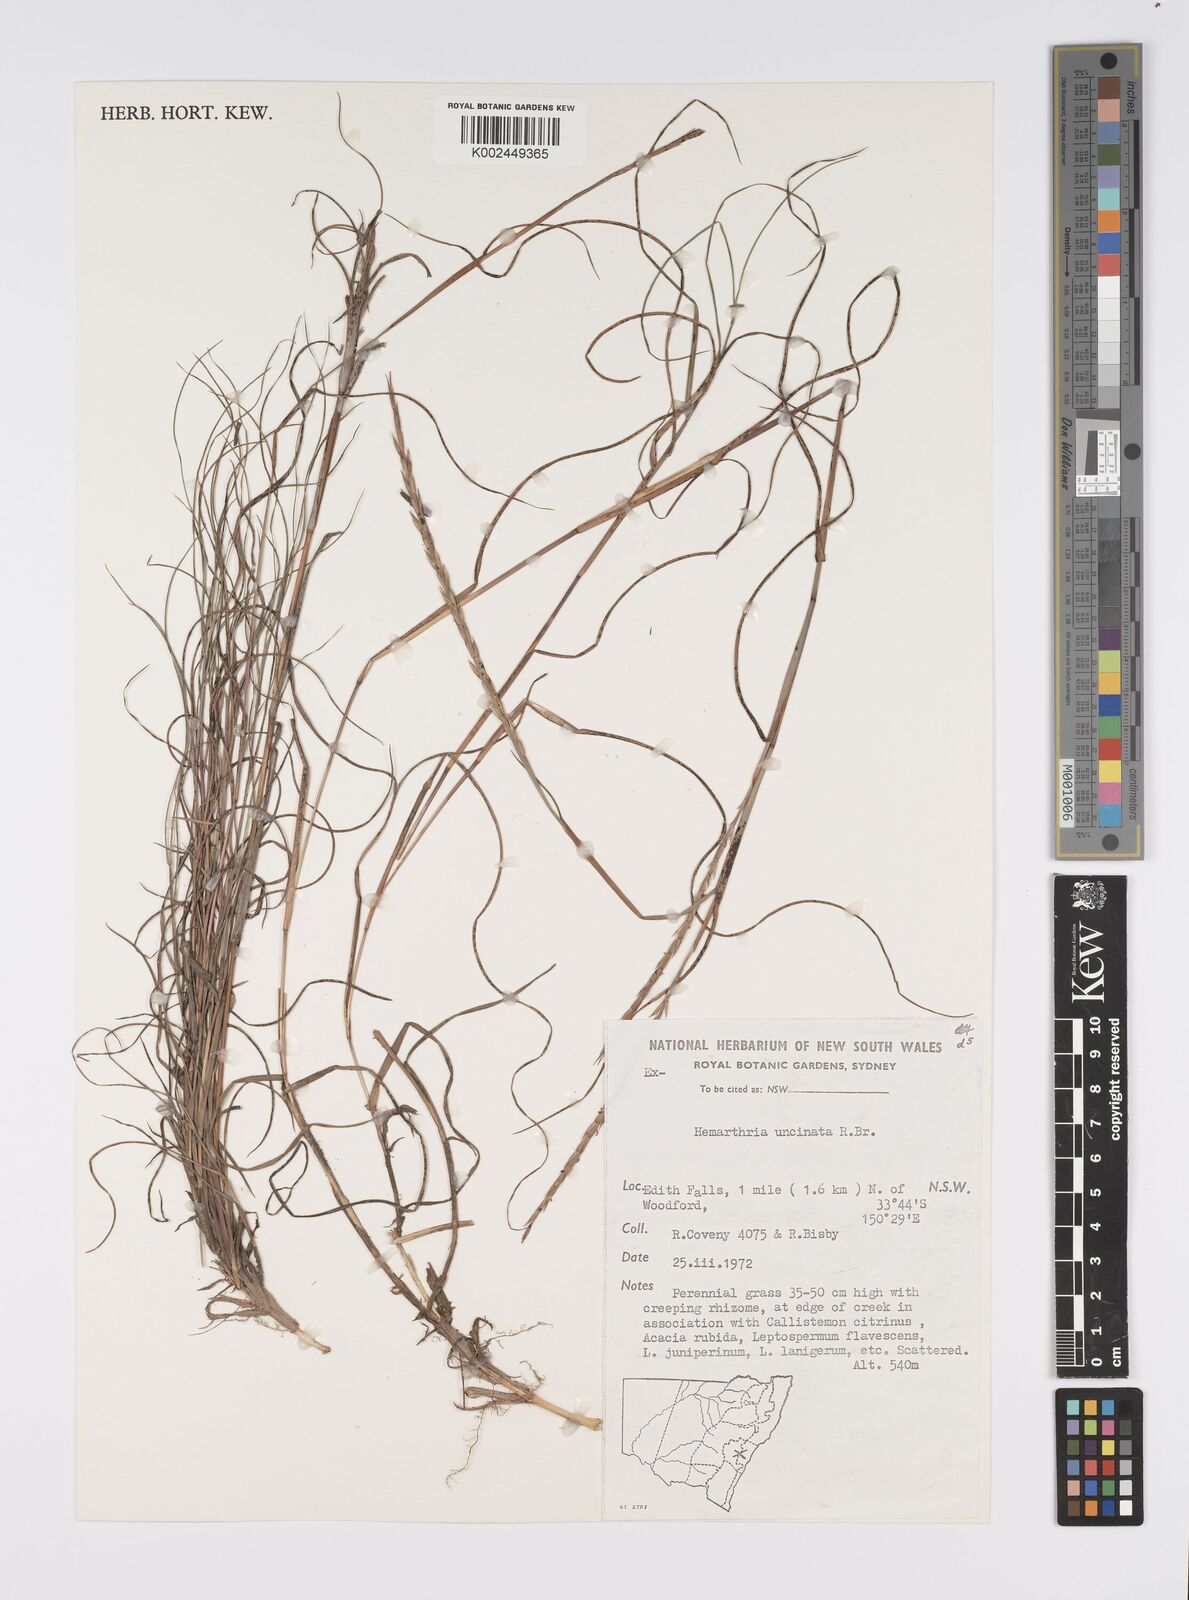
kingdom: Plantae
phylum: Tracheophyta
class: Liliopsida
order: Poales
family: Poaceae
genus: Hemarthria
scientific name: Hemarthria uncinata
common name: Matgrass
